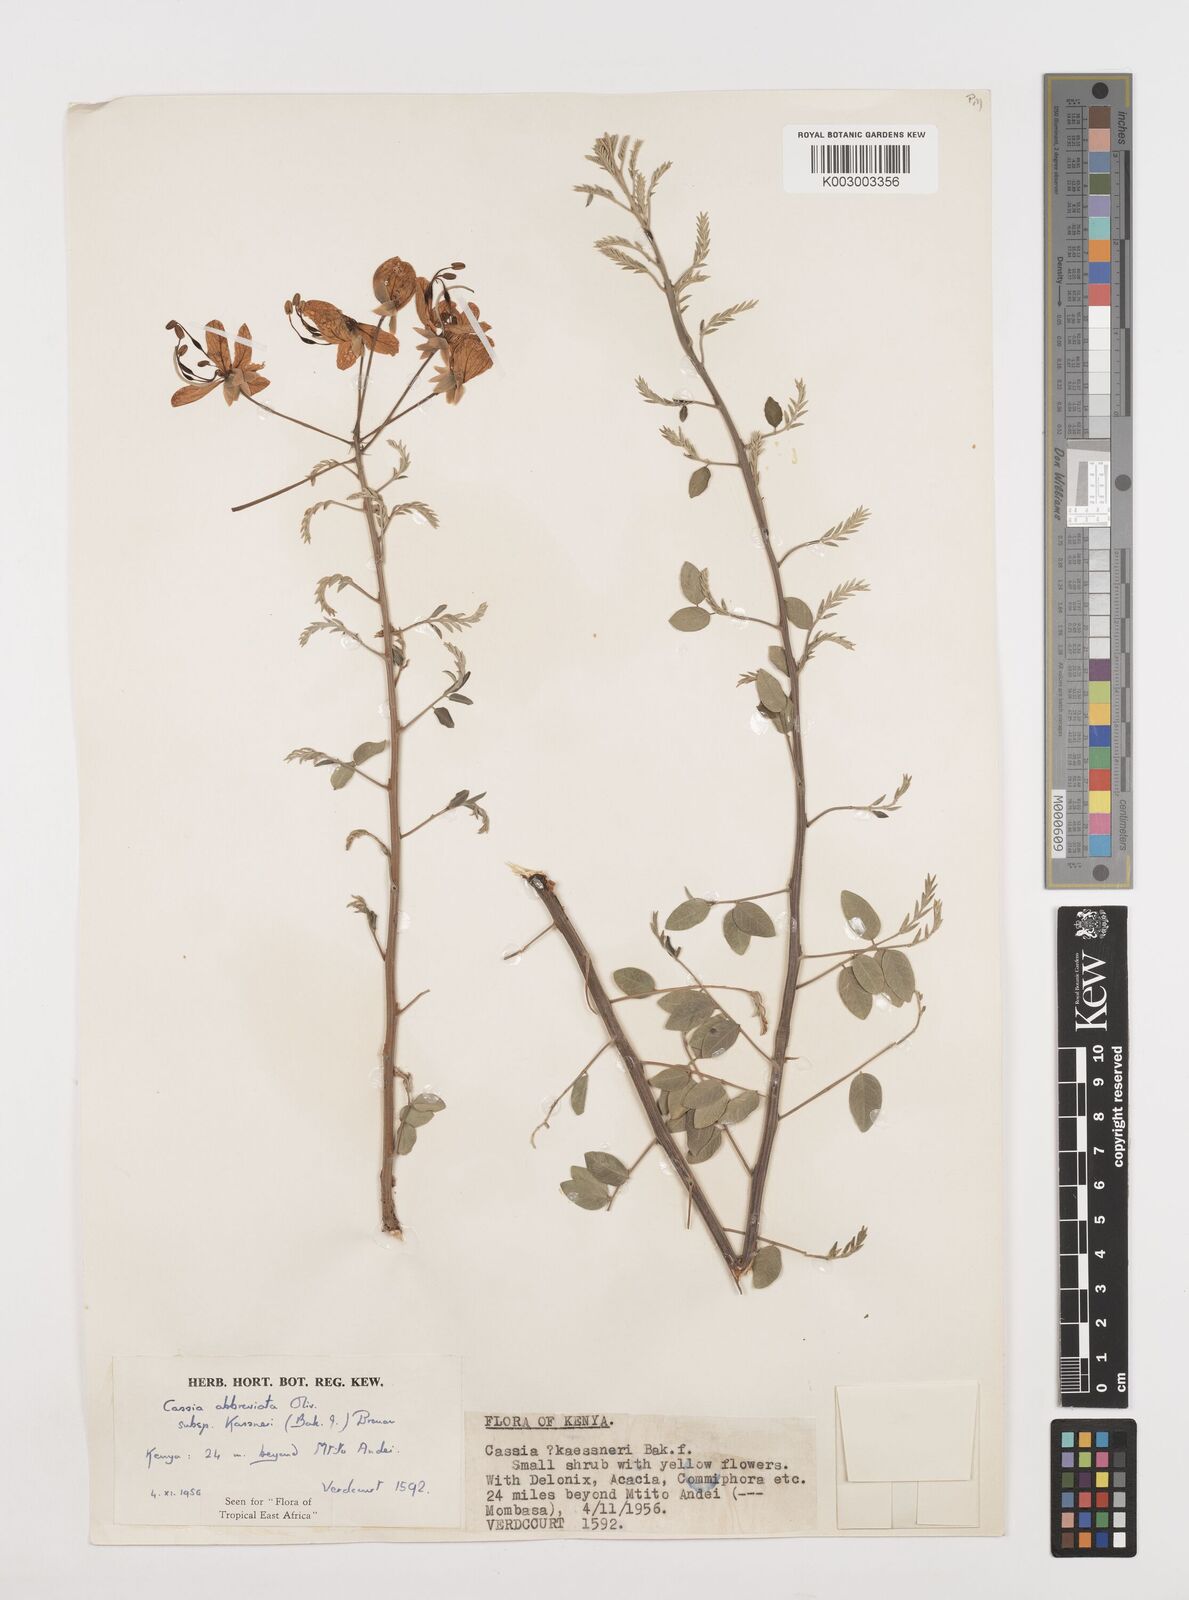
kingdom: Plantae
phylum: Tracheophyta
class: Magnoliopsida
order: Fabales
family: Fabaceae
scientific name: Fabaceae
